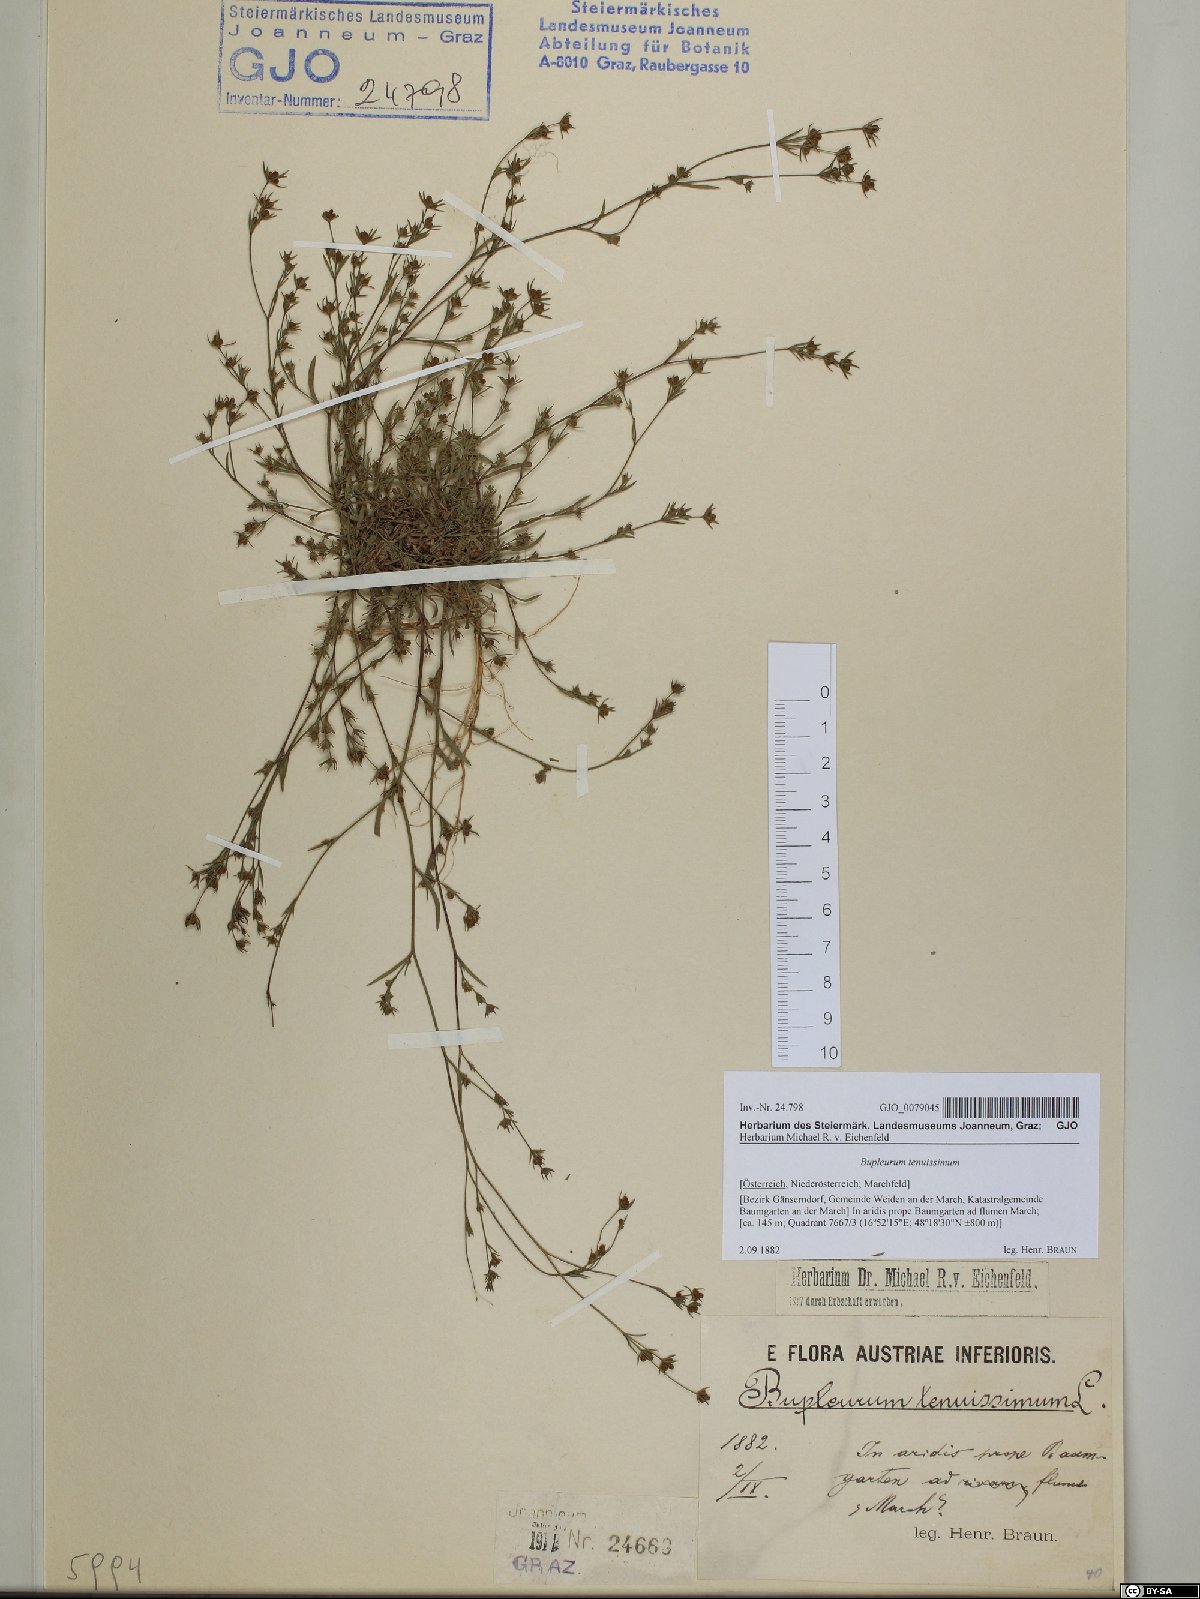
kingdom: Plantae
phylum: Tracheophyta
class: Magnoliopsida
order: Apiales
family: Apiaceae
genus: Bupleurum
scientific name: Bupleurum tenuissimum
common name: Slender hare's-ear
